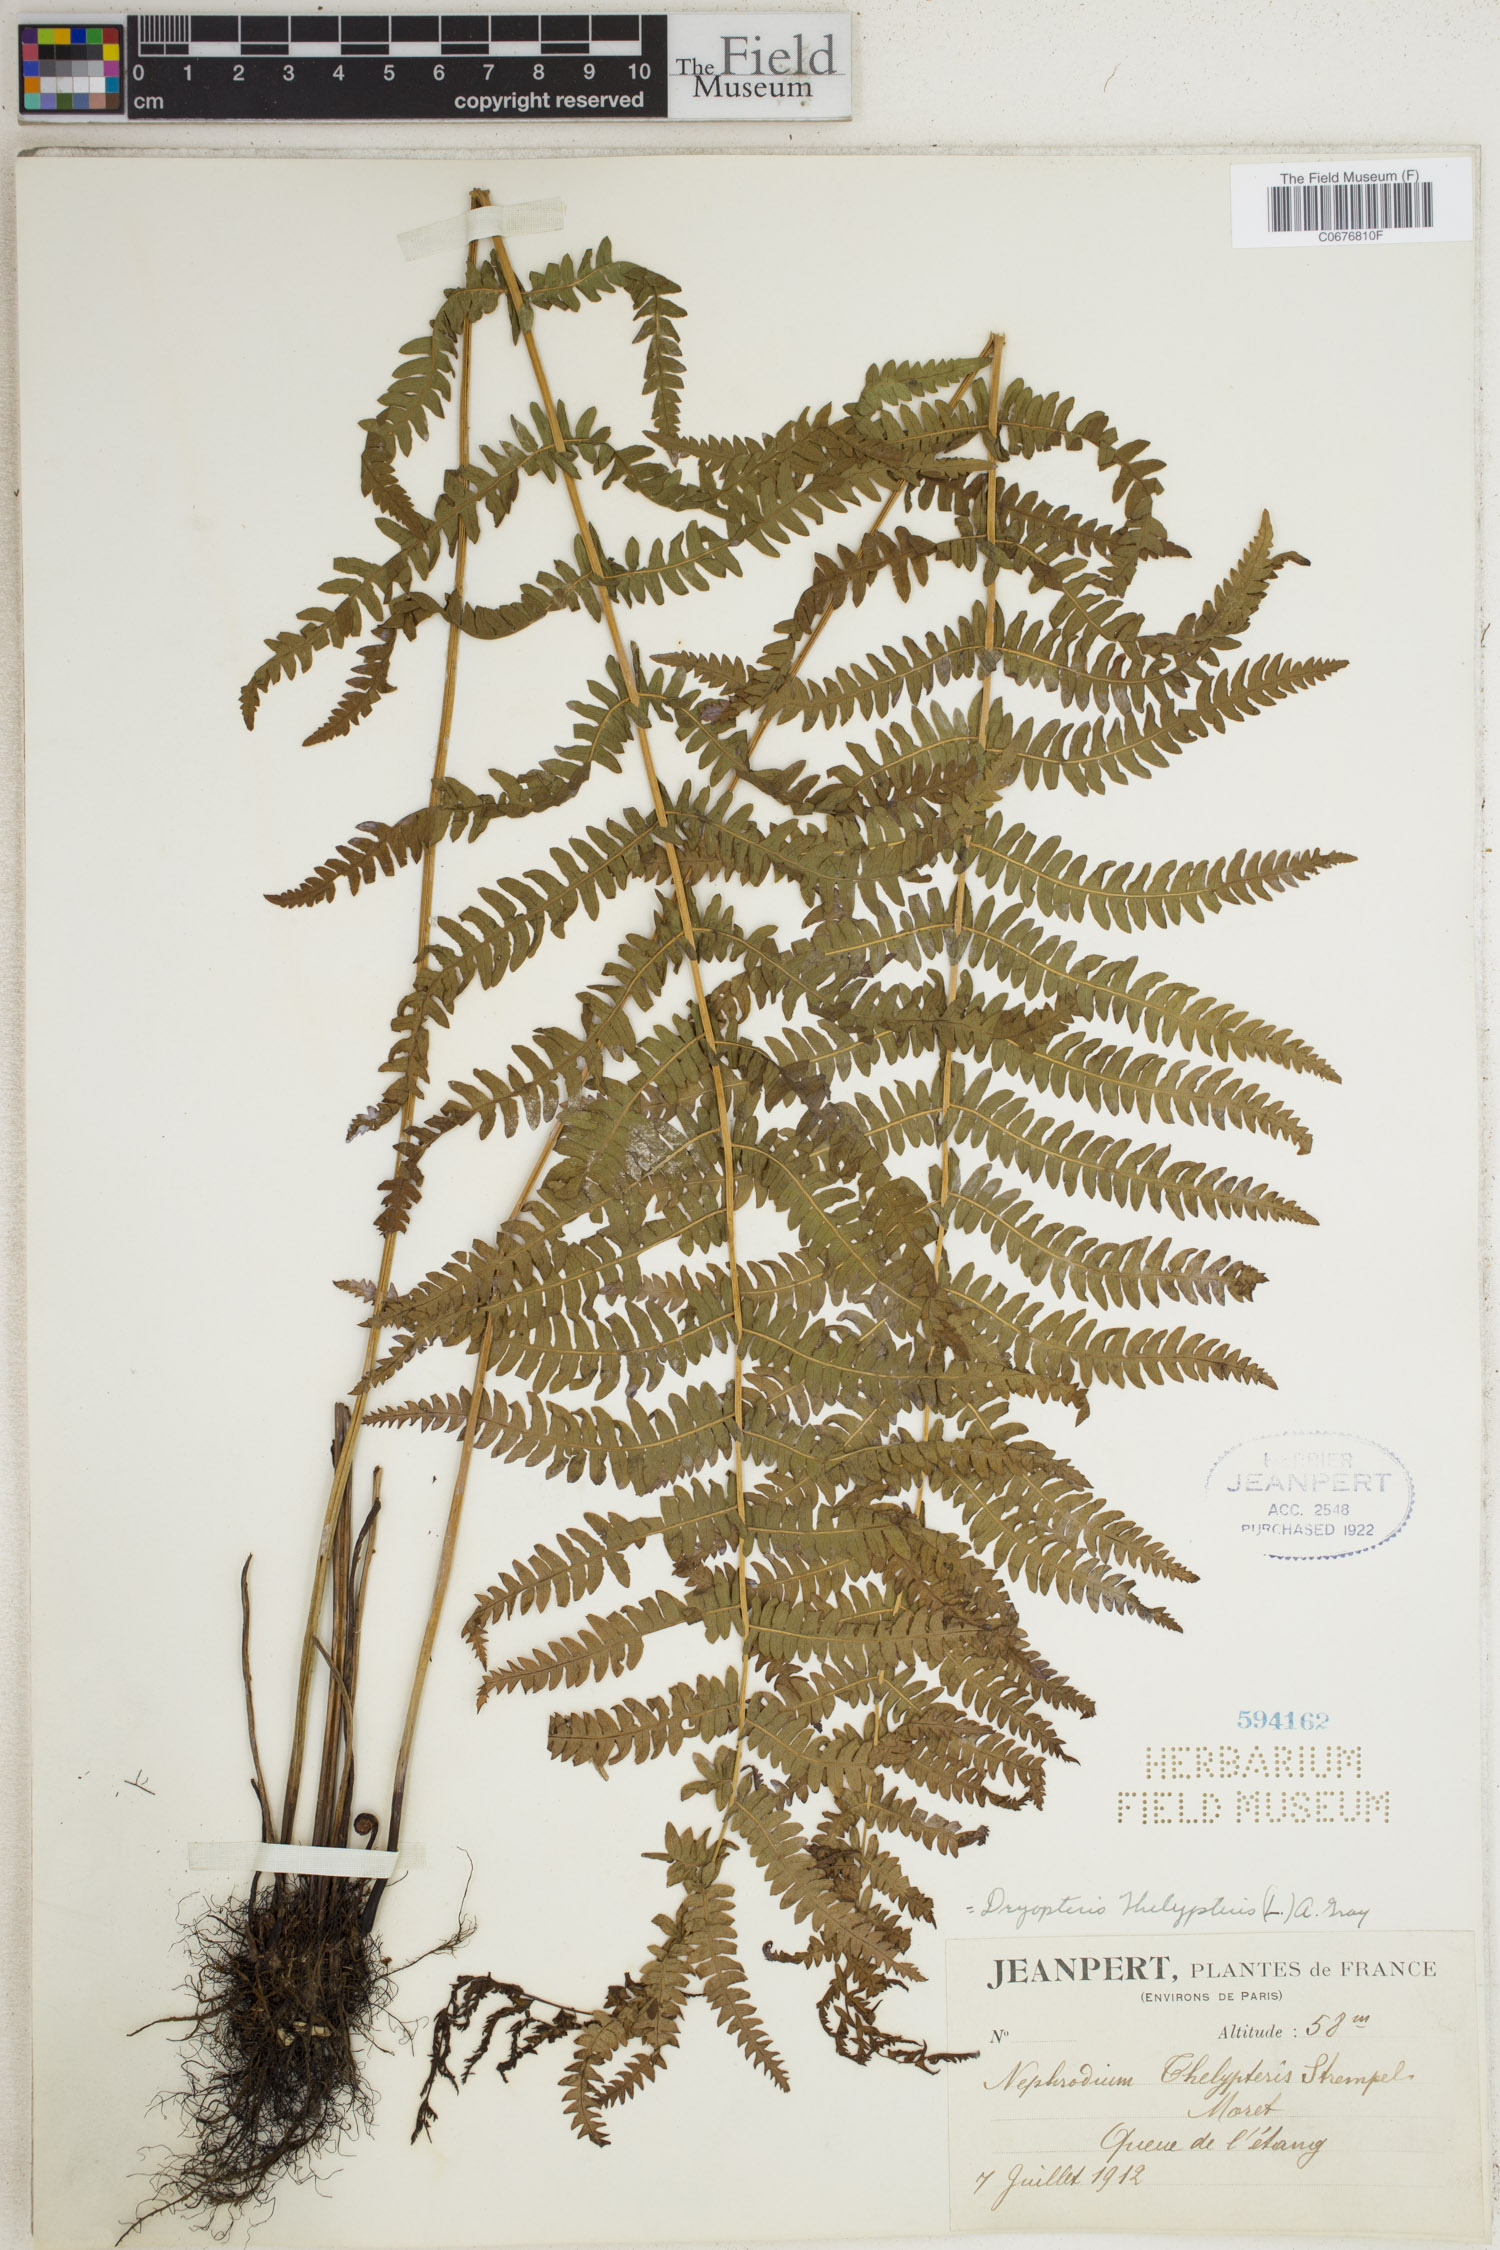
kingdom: Plantae
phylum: Tracheophyta
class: Polypodiopsida
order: Polypodiales
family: Thelypteridaceae
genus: Thelypteris
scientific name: Thelypteris palustris
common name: Marsh fern
